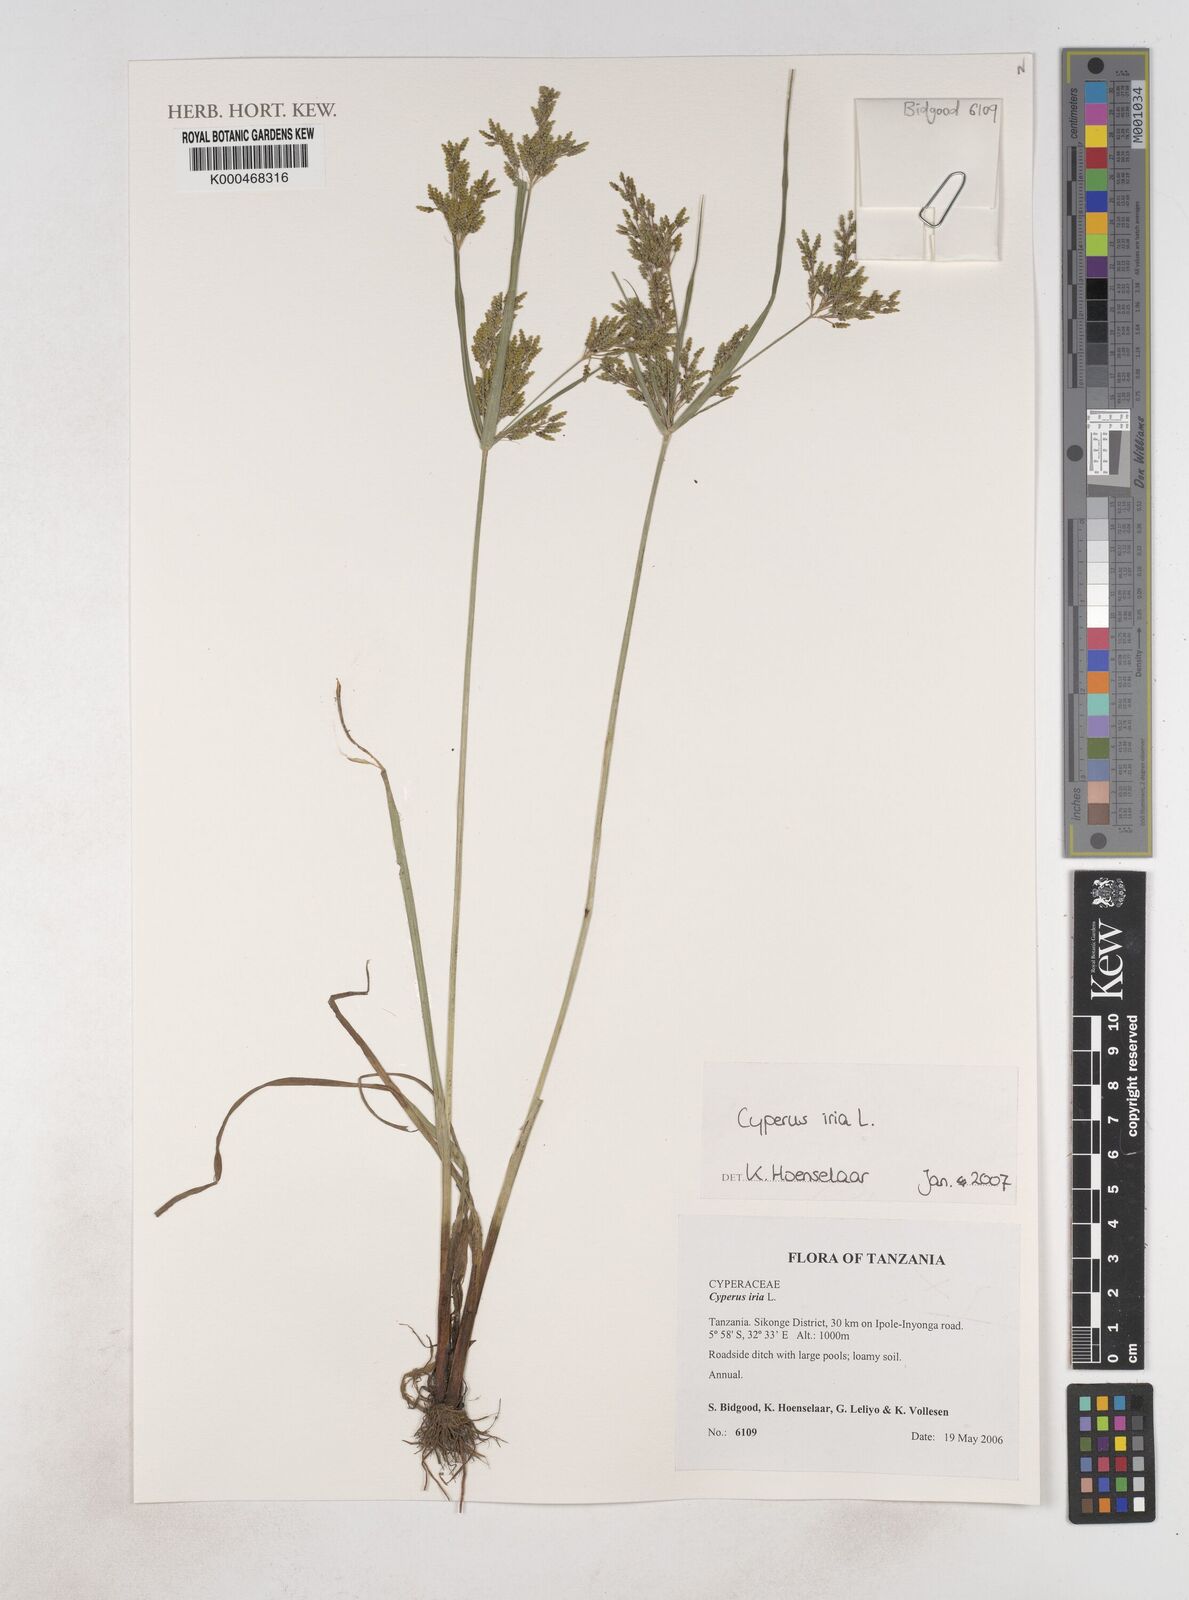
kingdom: Plantae
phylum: Tracheophyta
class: Liliopsida
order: Poales
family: Cyperaceae
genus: Cyperus
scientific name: Cyperus iria
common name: Ricefield flatsedge
